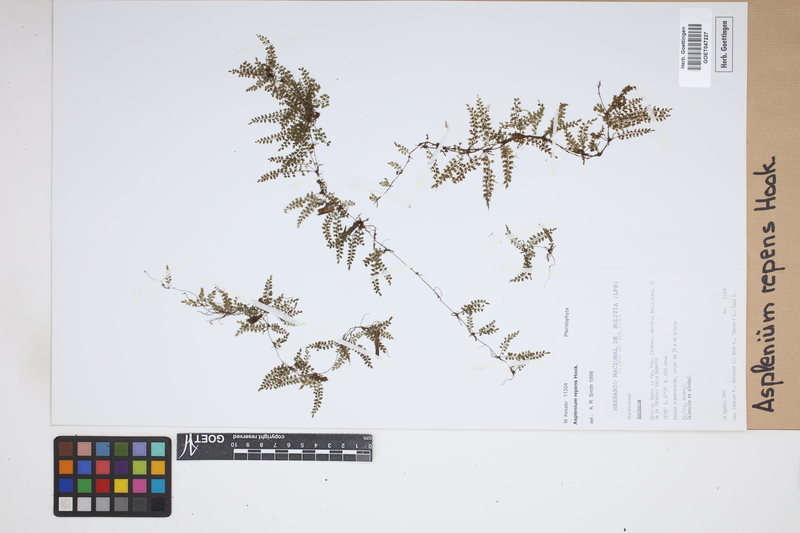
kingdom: Plantae
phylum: Tracheophyta
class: Polypodiopsida
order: Polypodiales
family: Aspleniaceae
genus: Asplenium
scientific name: Asplenium repens
